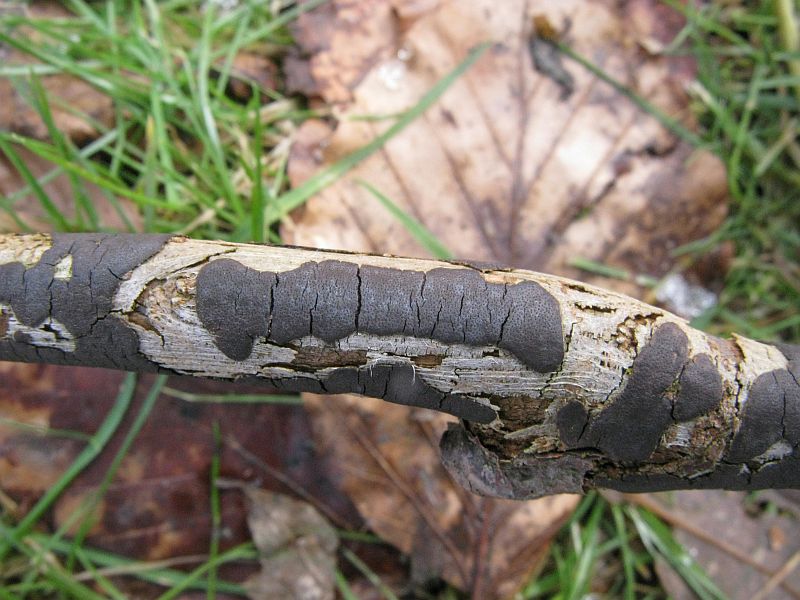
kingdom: Fungi
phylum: Ascomycota
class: Sordariomycetes
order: Xylariales
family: Diatrypaceae
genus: Diatrype
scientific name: Diatrype decorticata
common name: barksprænger-kulskorpe
